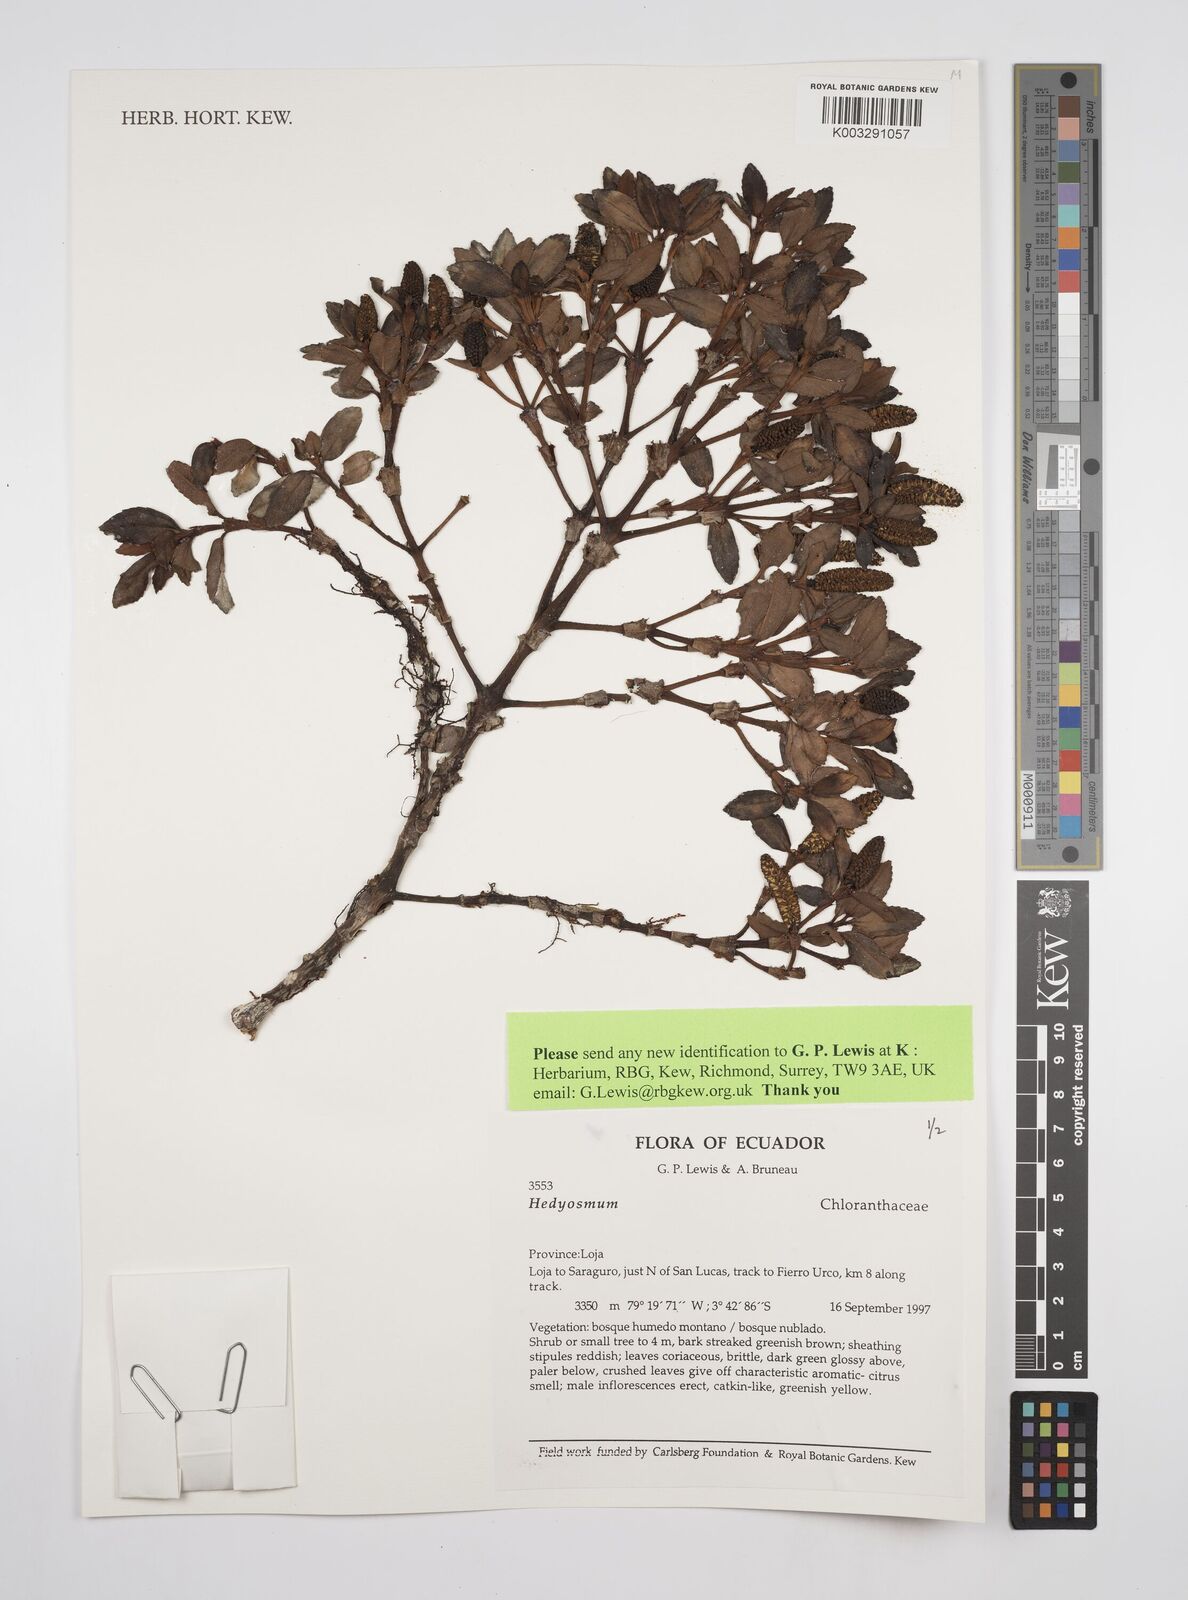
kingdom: Plantae
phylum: Tracheophyta
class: Magnoliopsida
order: Chloranthales
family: Chloranthaceae
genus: Hedyosmum
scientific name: Hedyosmum
